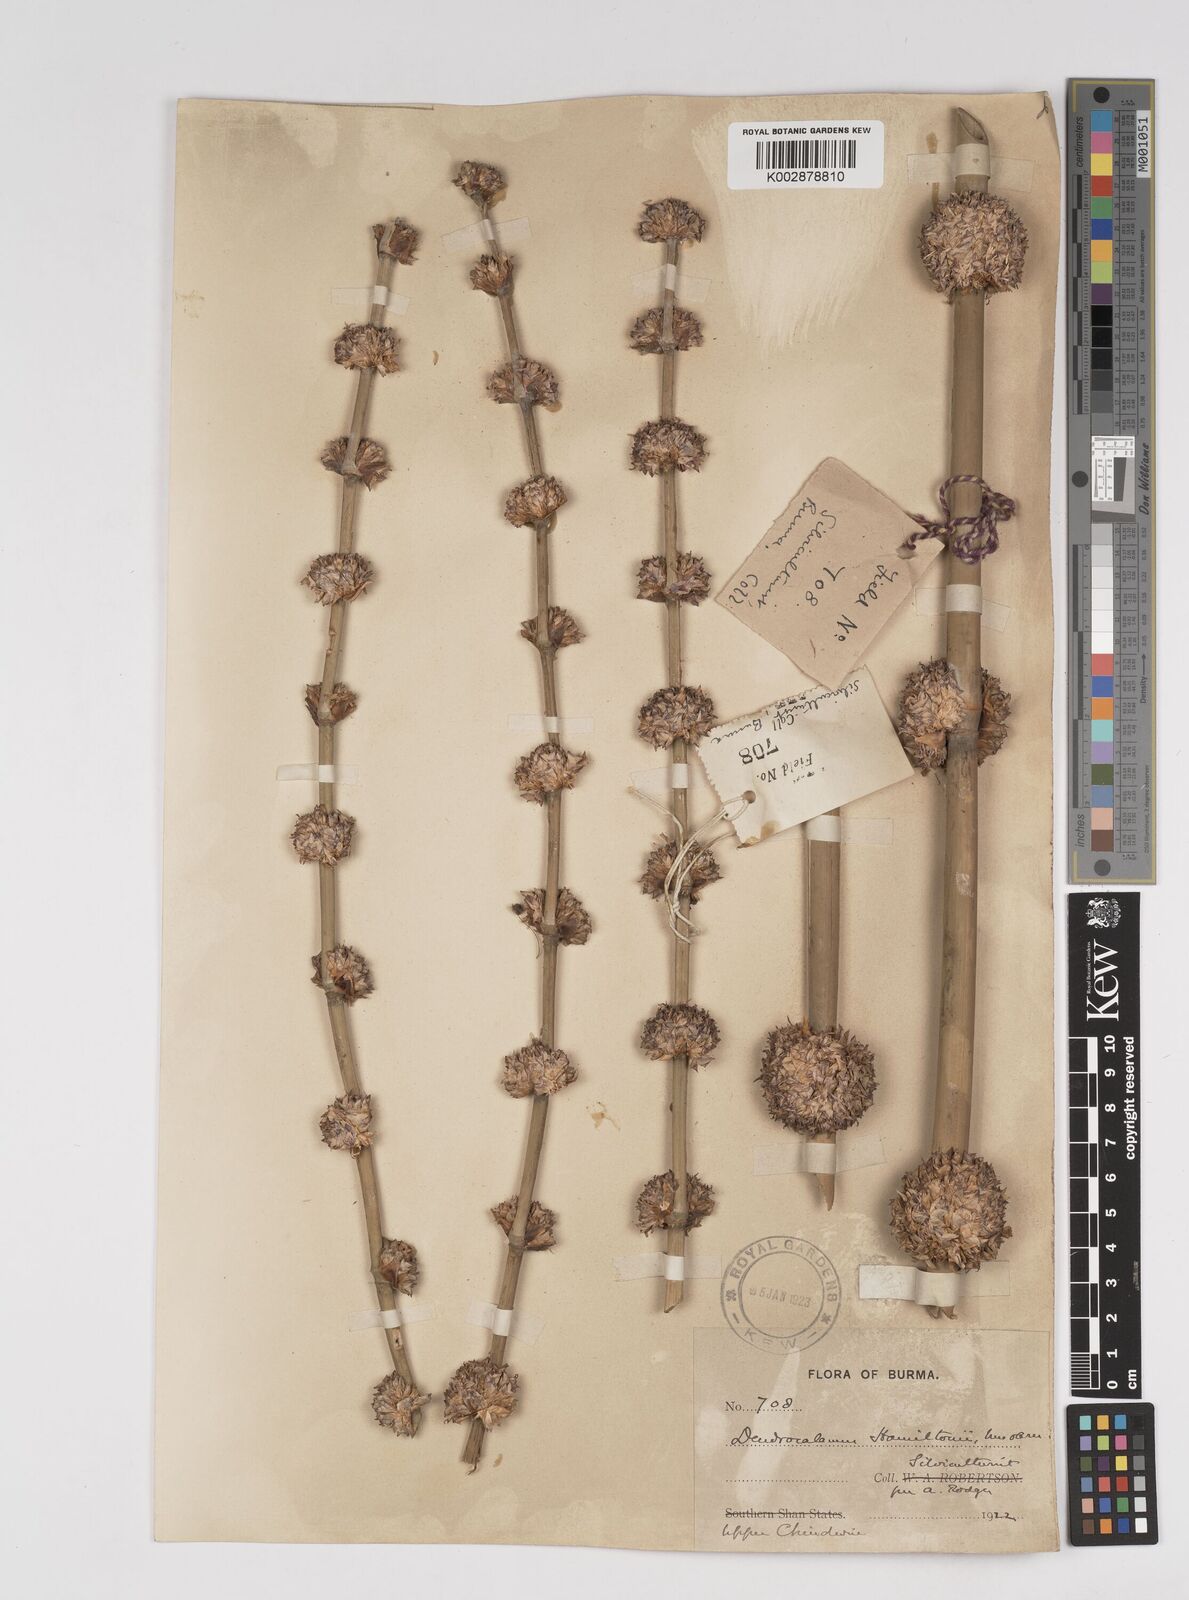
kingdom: Plantae
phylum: Tracheophyta
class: Liliopsida
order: Poales
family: Poaceae
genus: Dendrocalamus
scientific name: Dendrocalamus hamiltonii
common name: Tama bamboo
